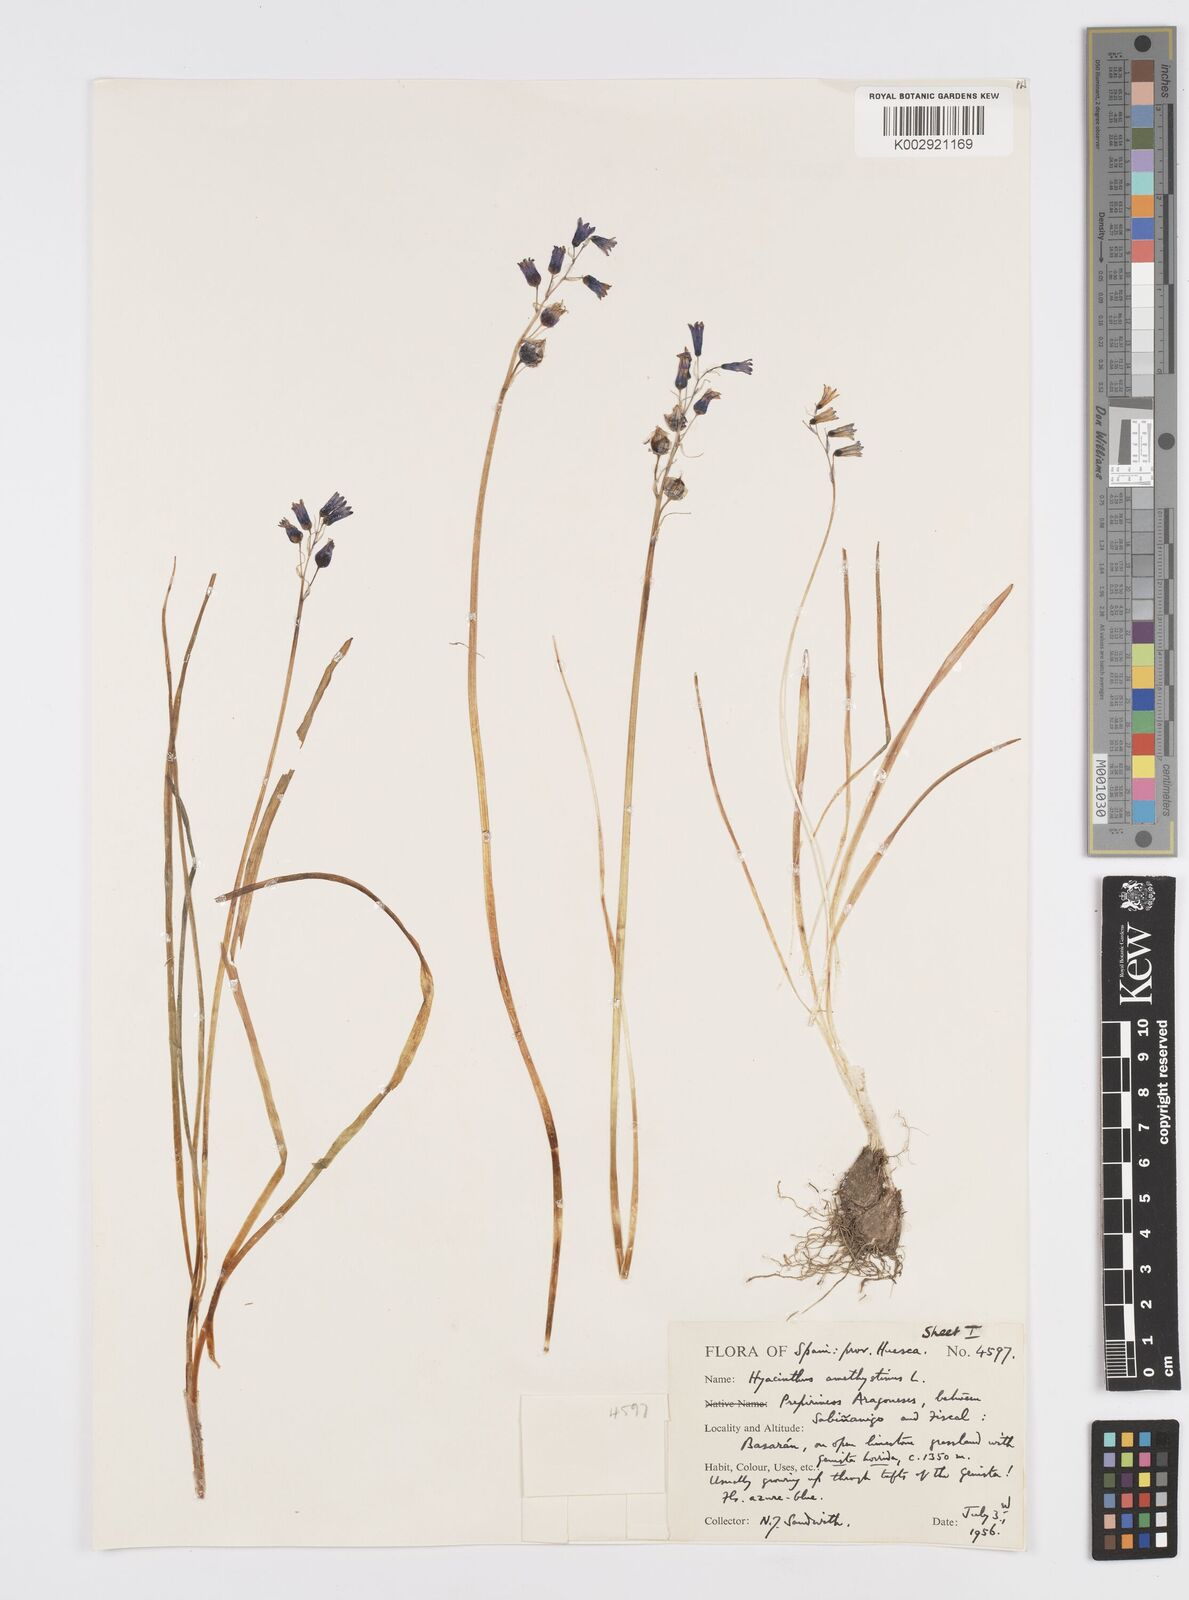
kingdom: Plantae
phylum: Tracheophyta
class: Liliopsida
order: Asparagales
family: Asparagaceae
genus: Brimeura
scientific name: Brimeura
